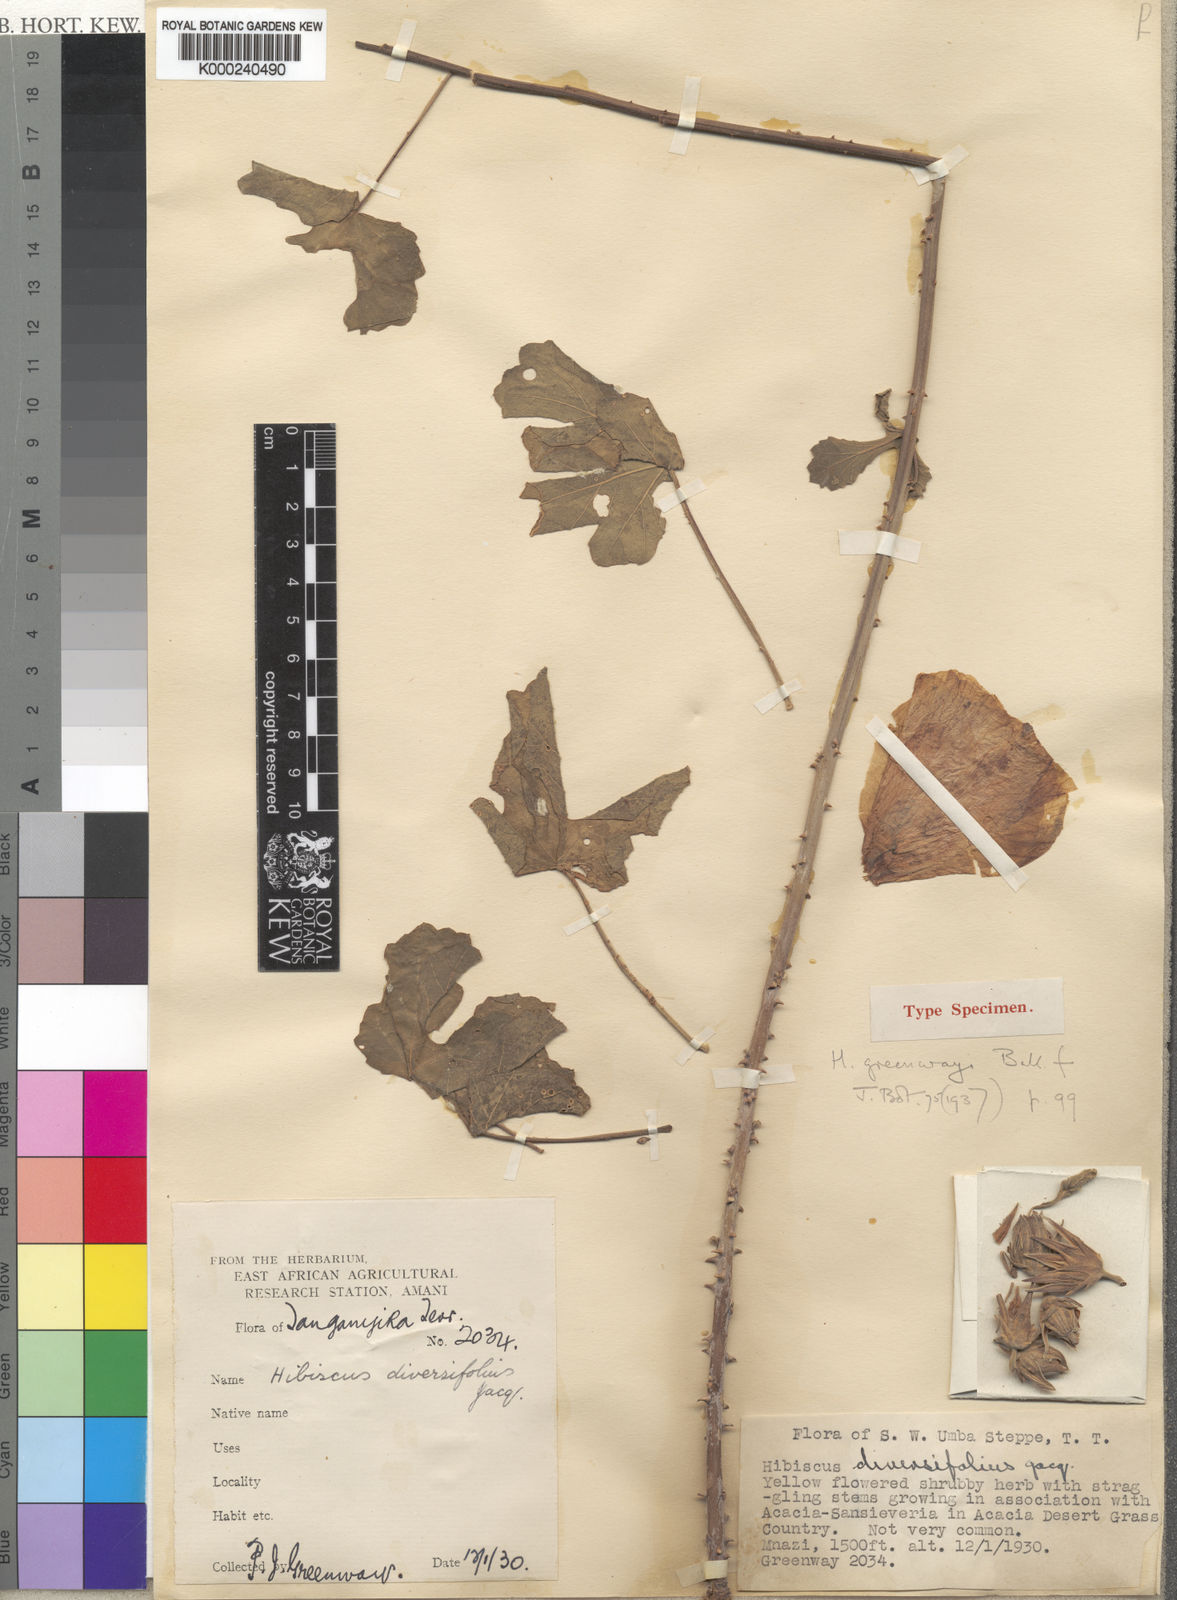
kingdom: Plantae
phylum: Tracheophyta
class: Magnoliopsida
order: Malvales
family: Malvaceae
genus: Hibiscus
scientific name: Hibiscus greenwayi
